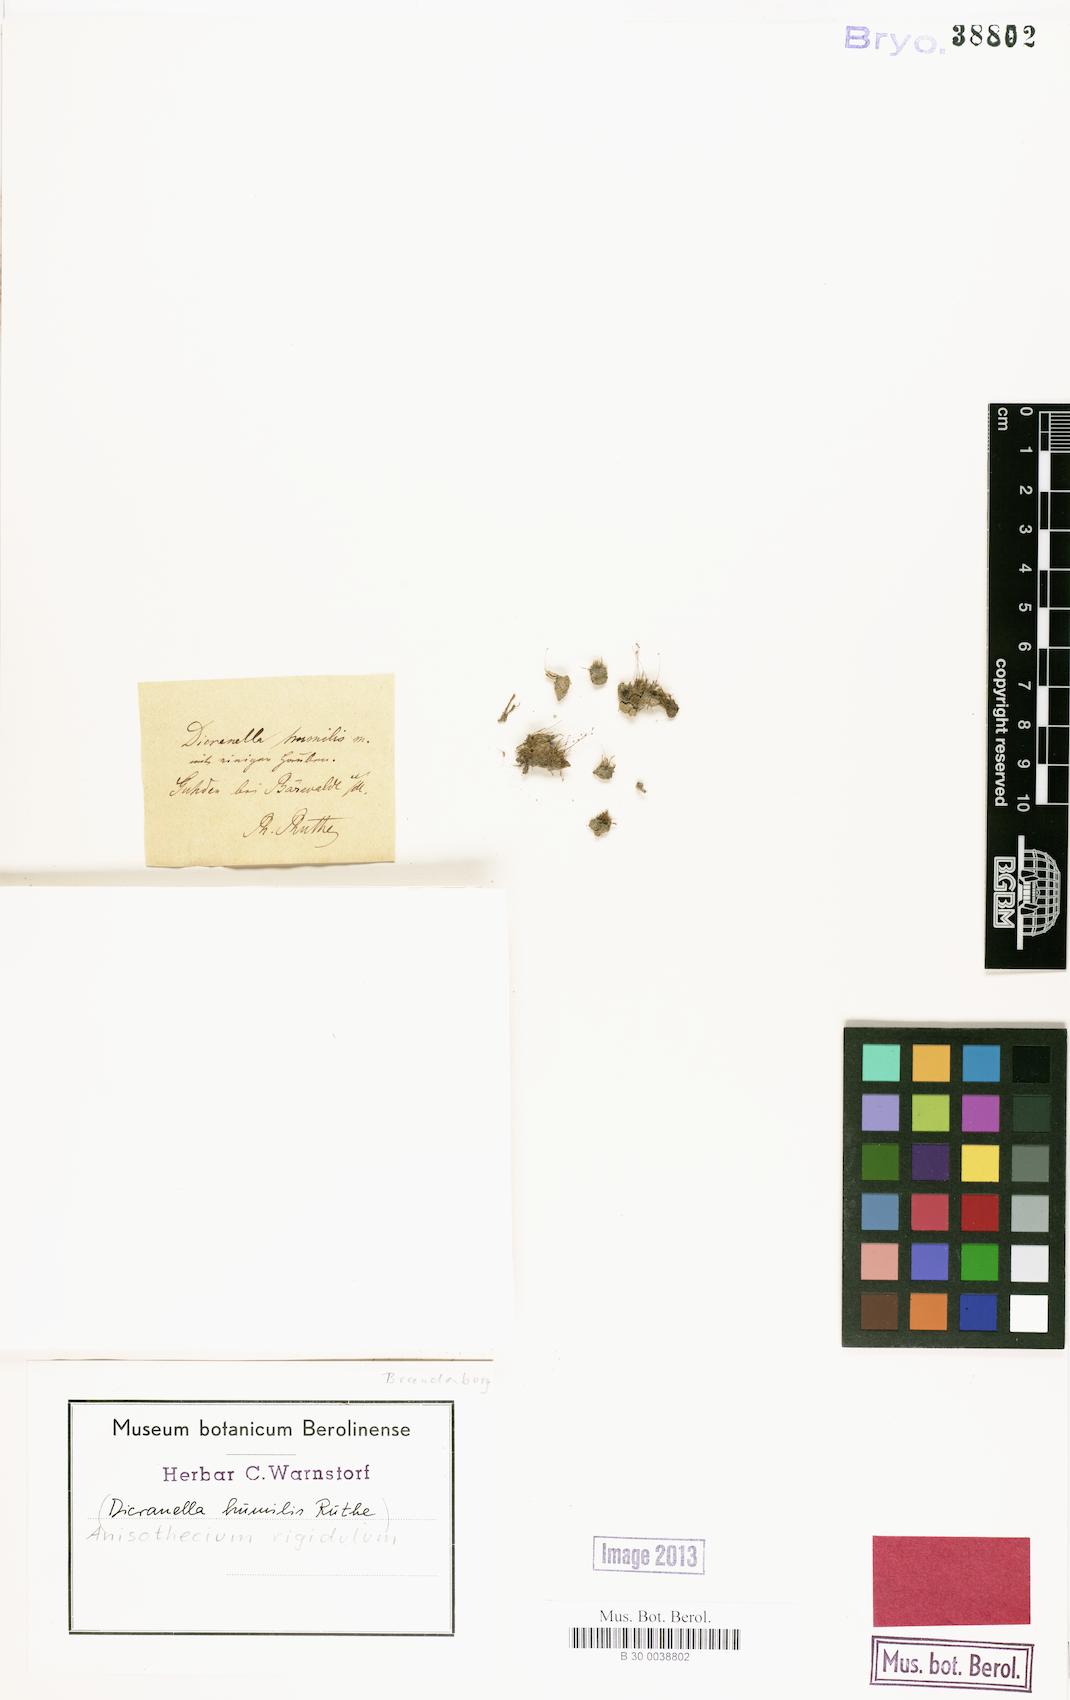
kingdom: Plantae
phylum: Bryophyta
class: Bryopsida
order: Dicranales
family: Dicranellaceae
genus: Dicranella
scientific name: Dicranella humilis
